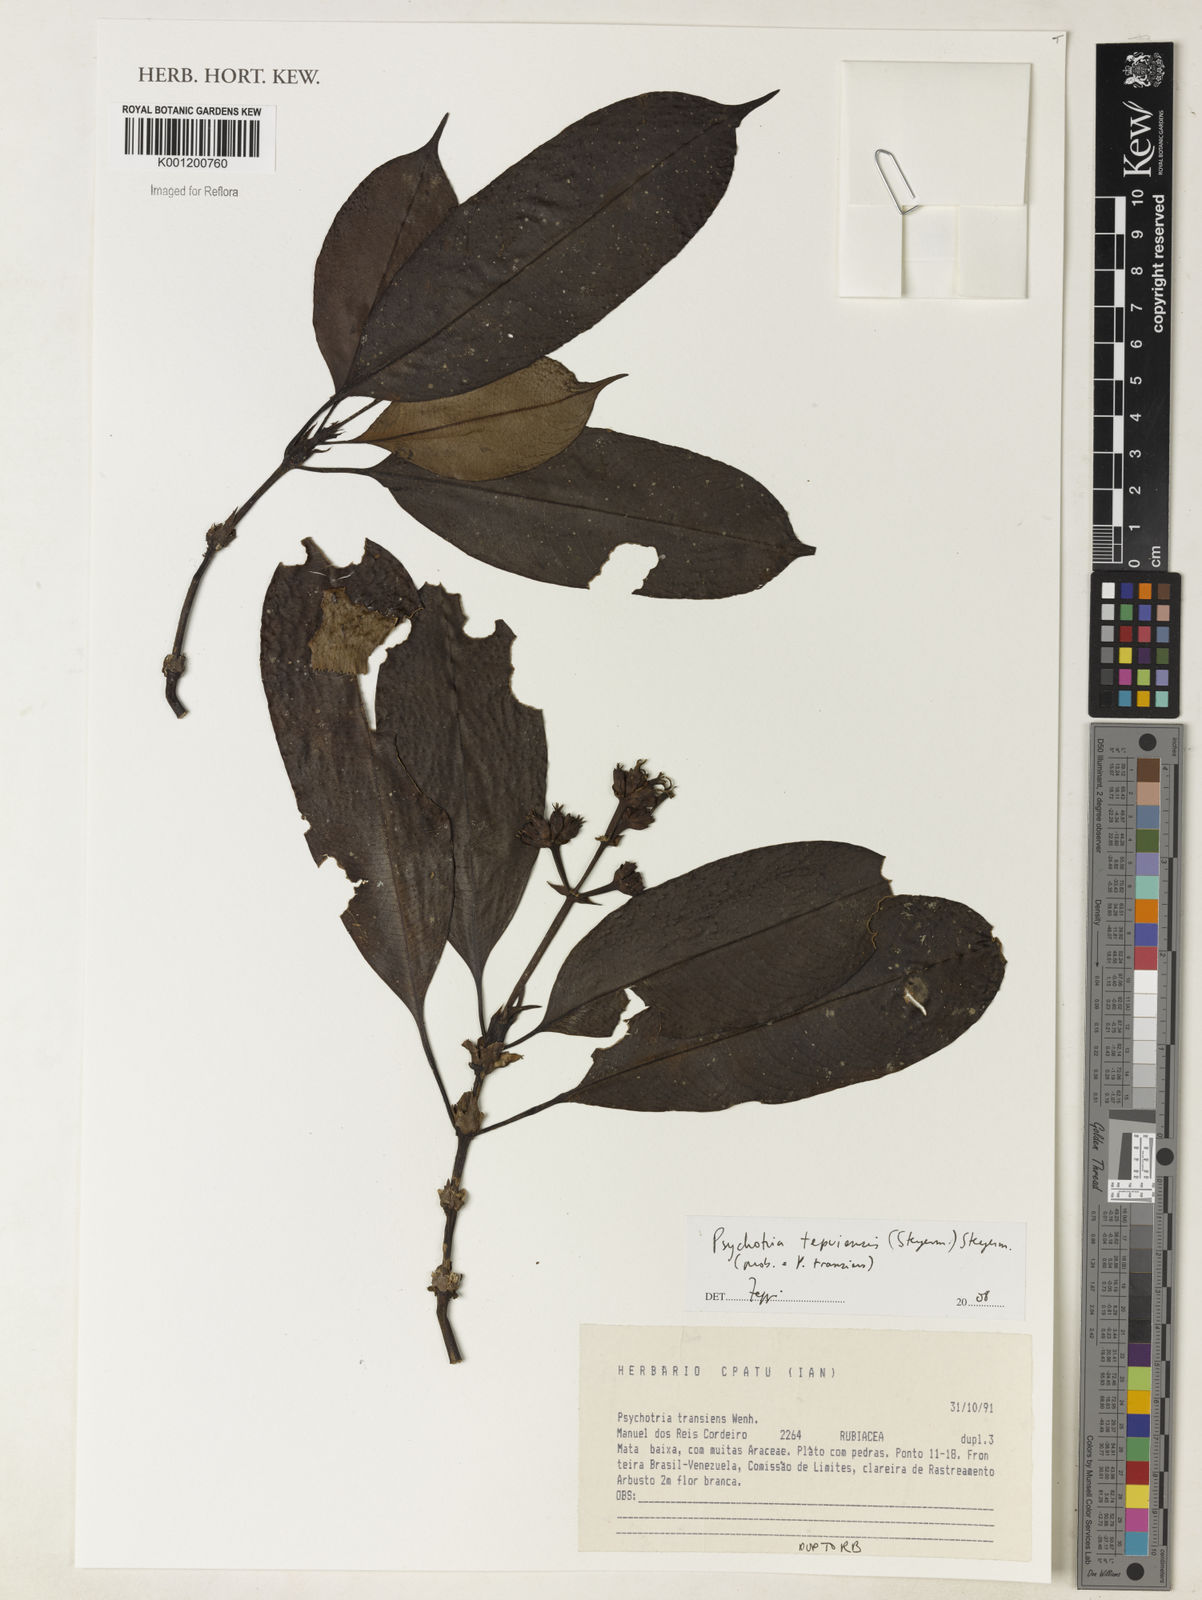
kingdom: Plantae
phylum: Tracheophyta
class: Magnoliopsida
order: Gentianales
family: Rubiaceae
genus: Palicourea
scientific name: Palicourea tepuiensis
